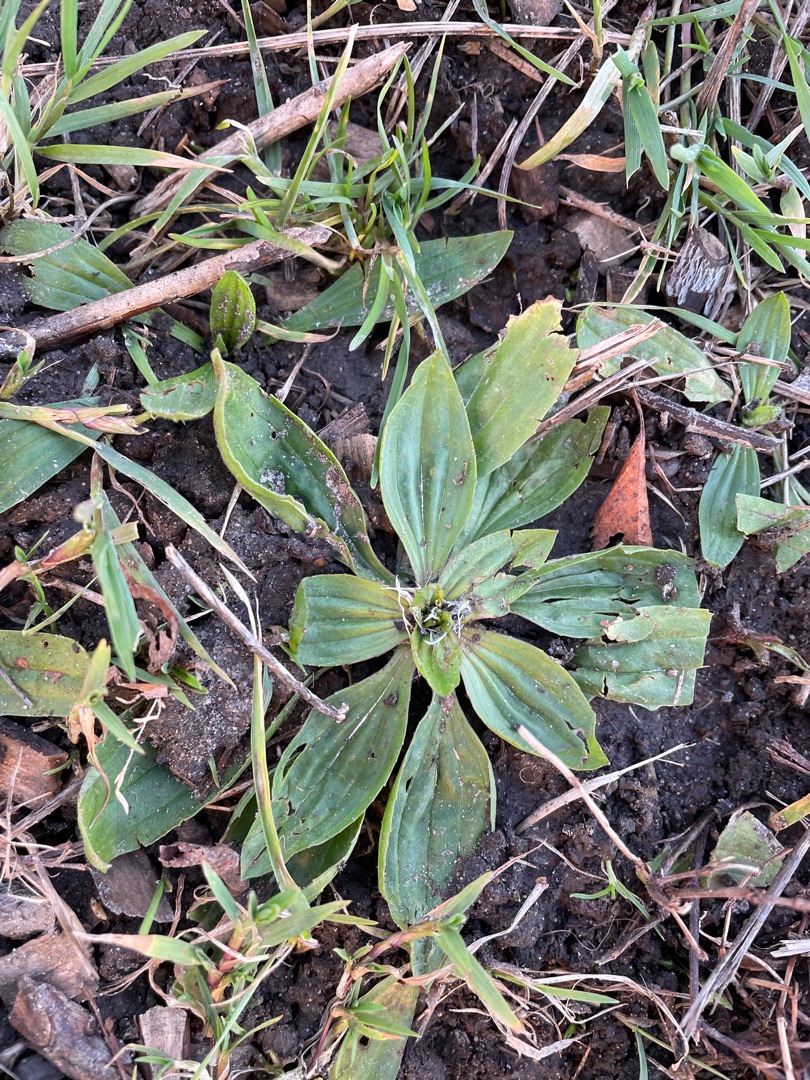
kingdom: Plantae
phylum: Tracheophyta
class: Magnoliopsida
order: Lamiales
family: Plantaginaceae
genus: Plantago
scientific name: Plantago lanceolata
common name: Lancet-vejbred
